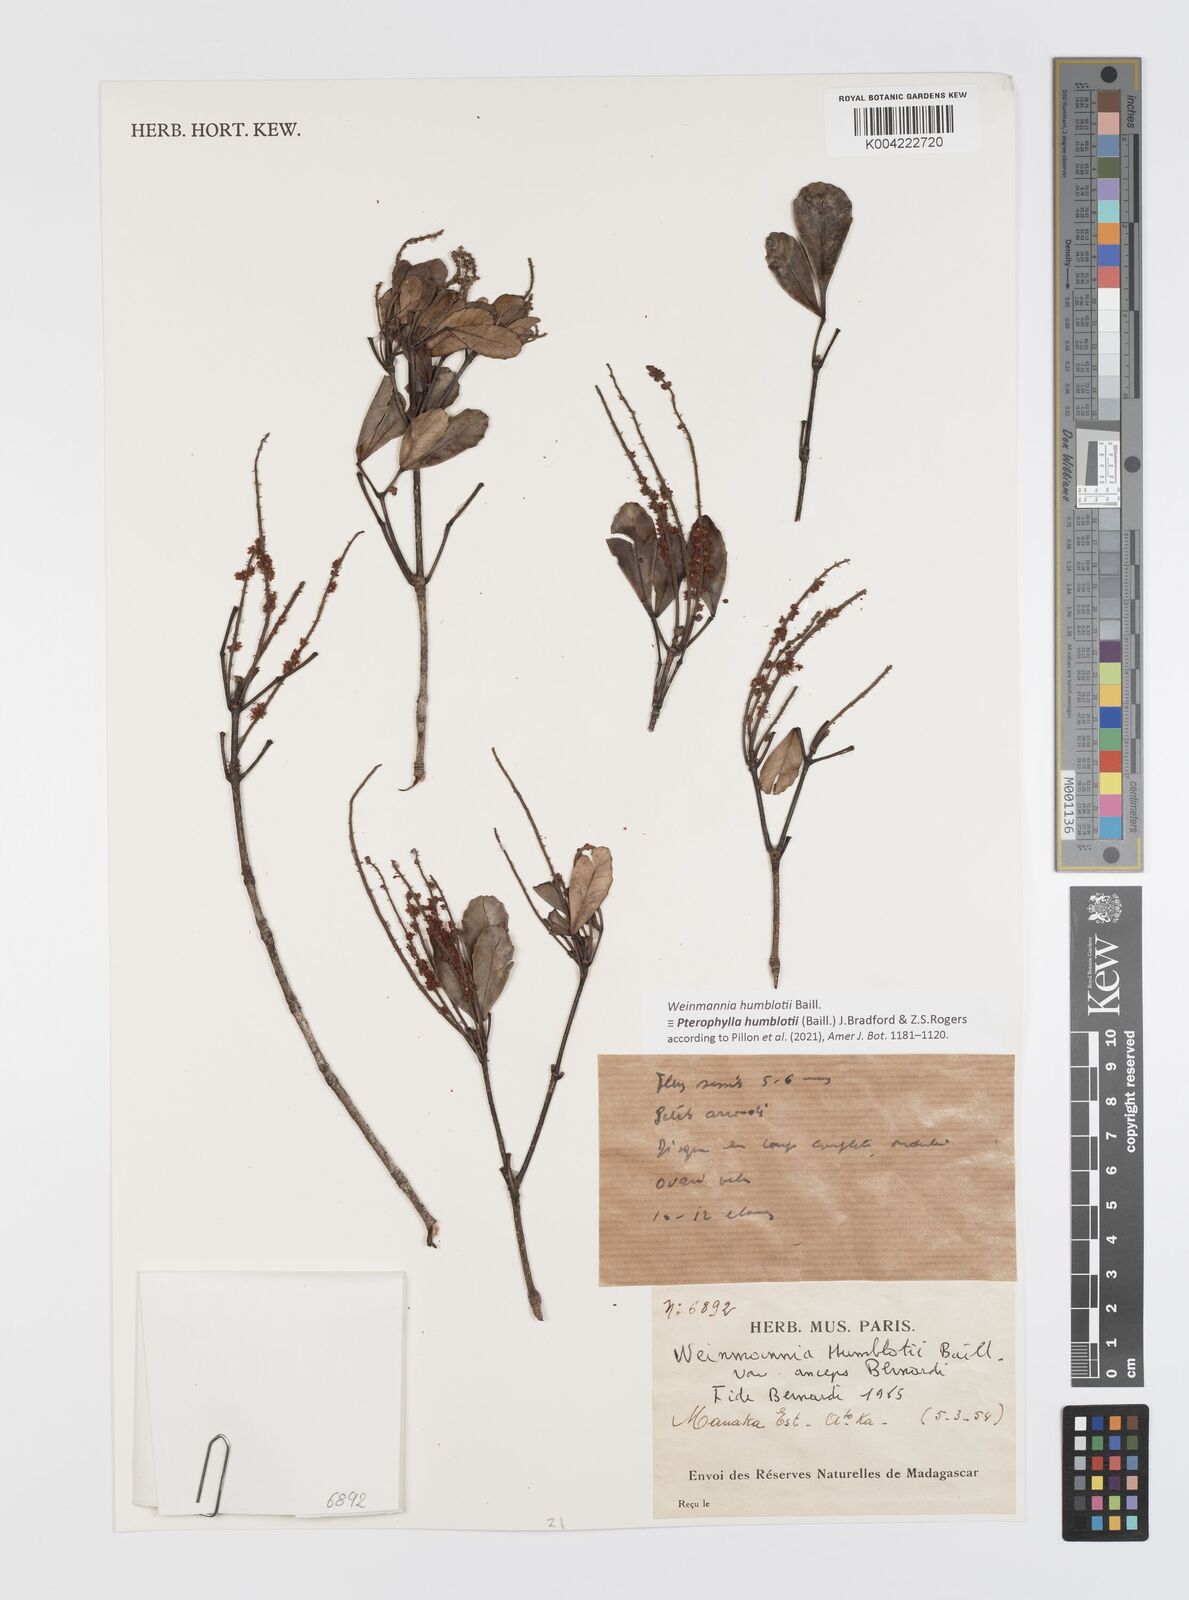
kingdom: Plantae
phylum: Tracheophyta
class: Magnoliopsida
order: Oxalidales
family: Cunoniaceae
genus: Pterophylla
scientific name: Pterophylla
